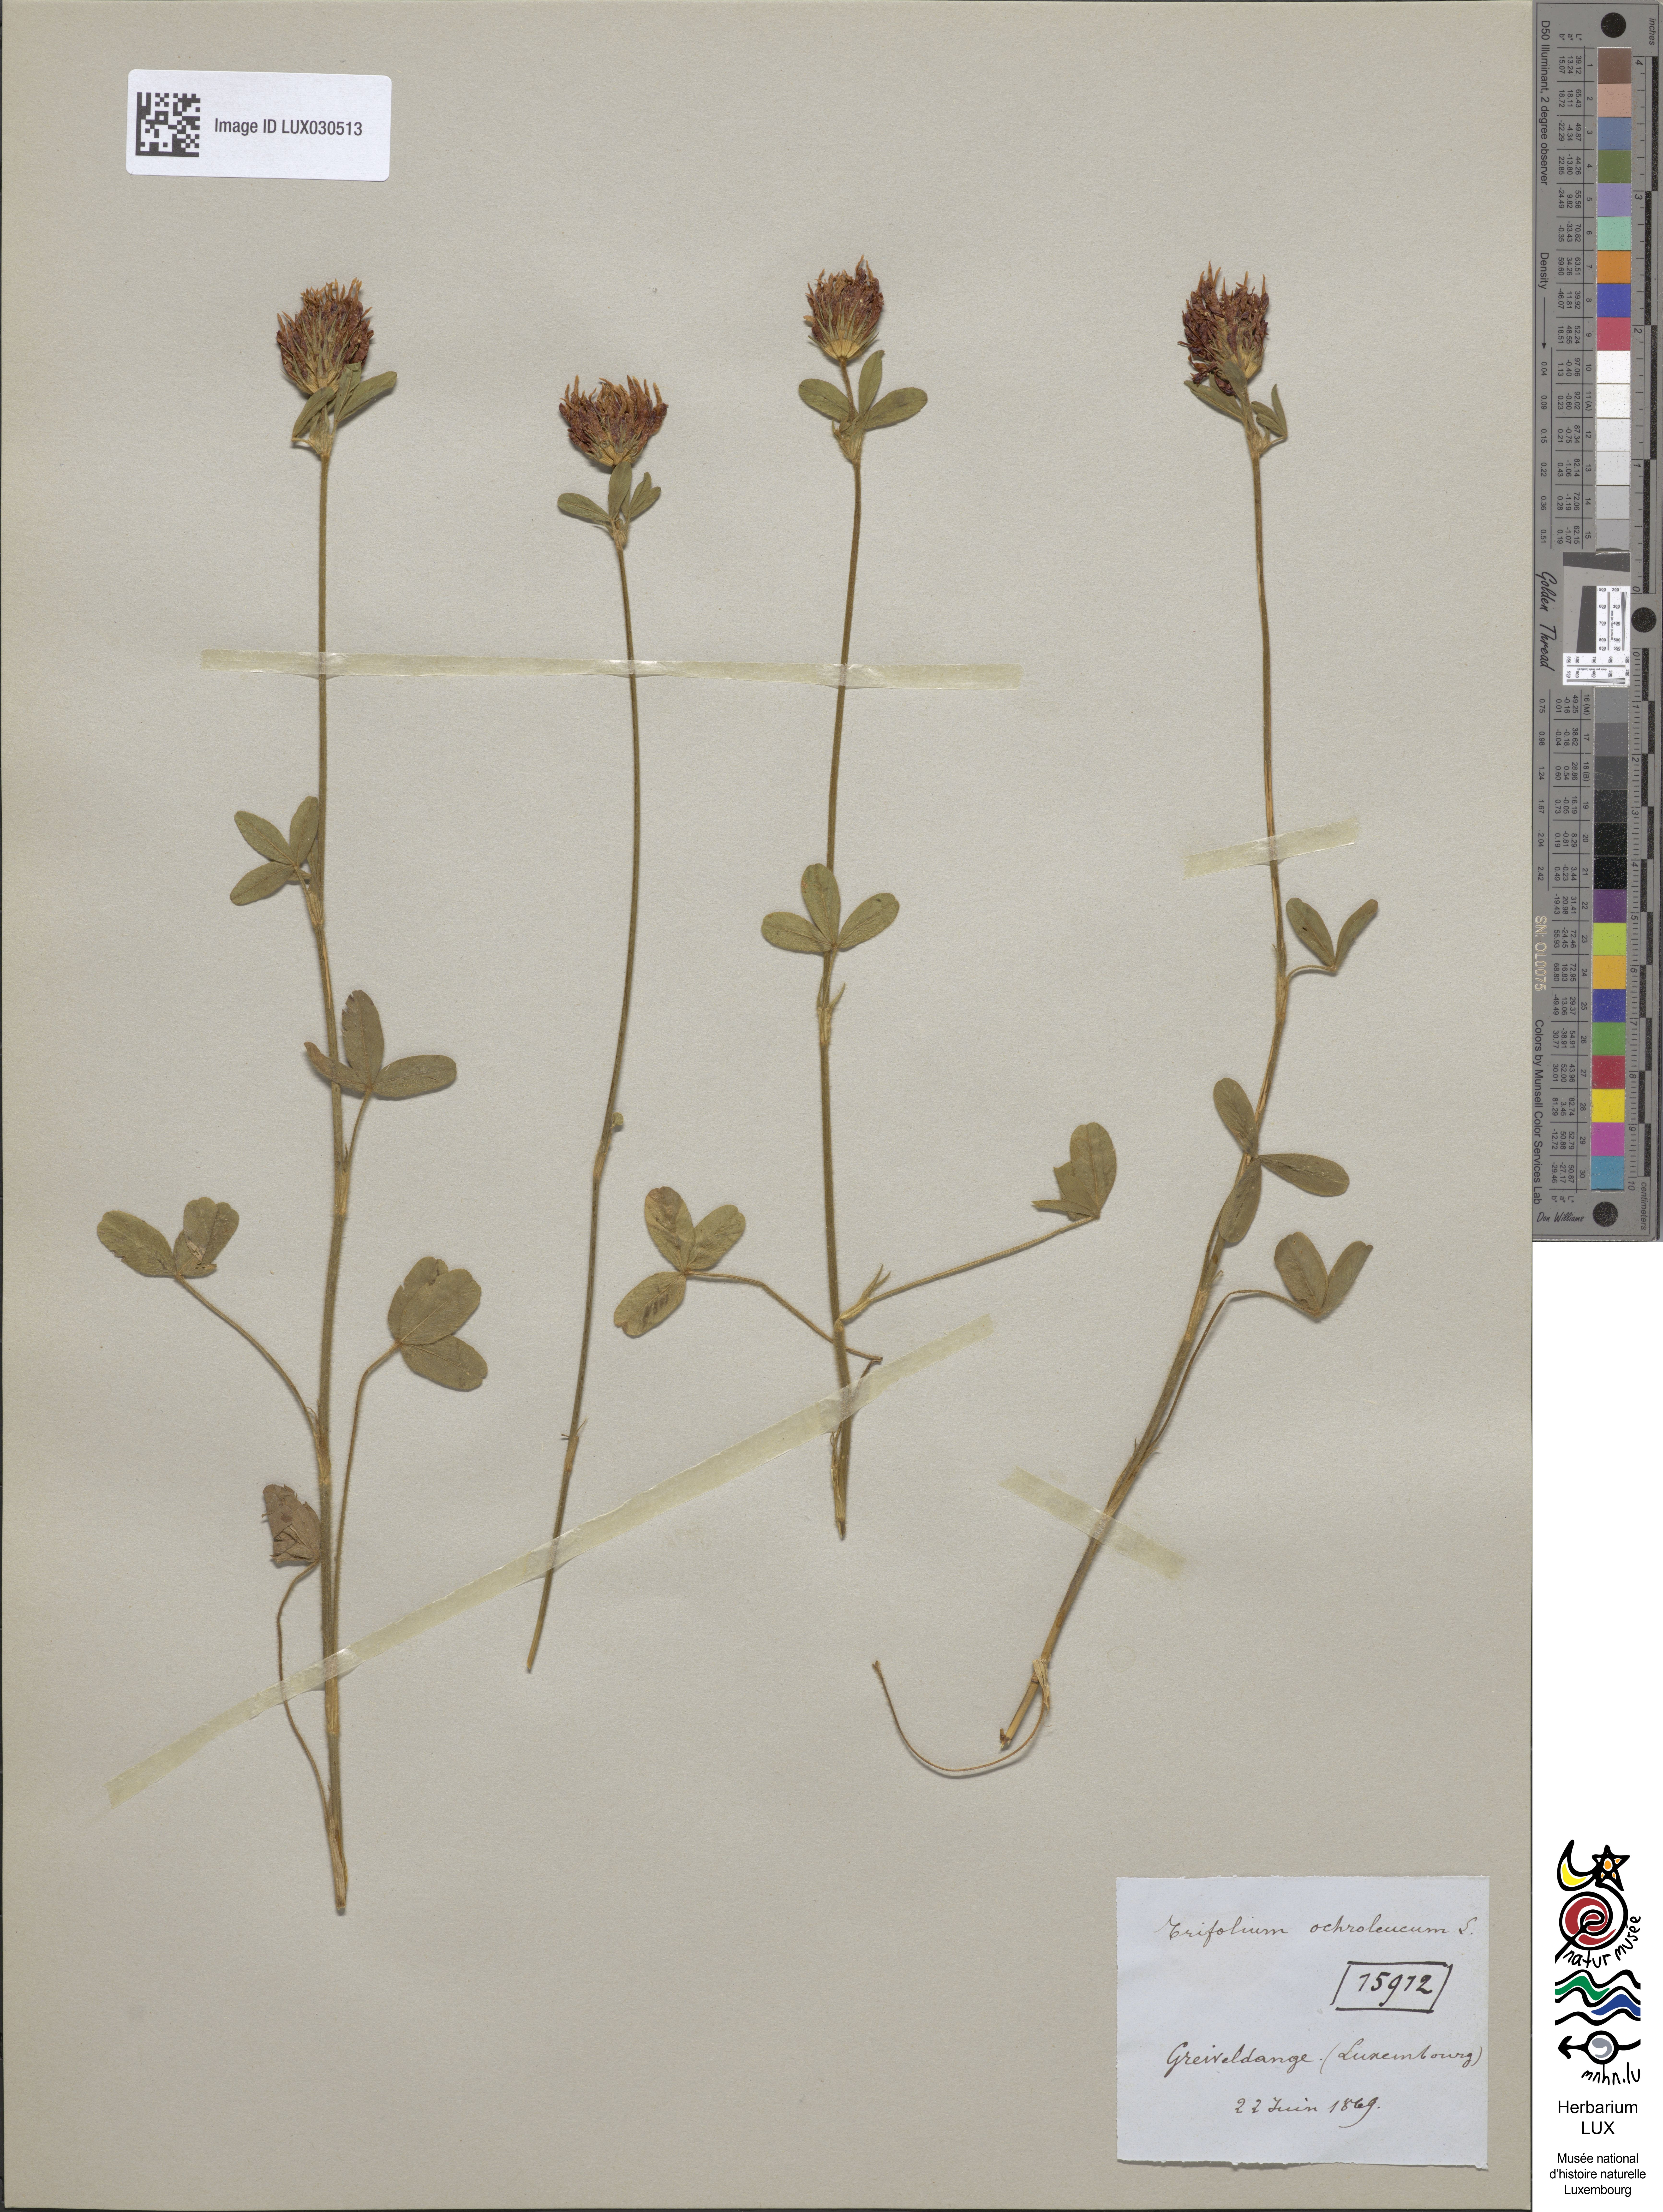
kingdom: Plantae
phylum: Tracheophyta
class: Magnoliopsida
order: Fabales
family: Fabaceae
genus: Trifolium
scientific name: Trifolium ochroleucon
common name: Sulphur clover
